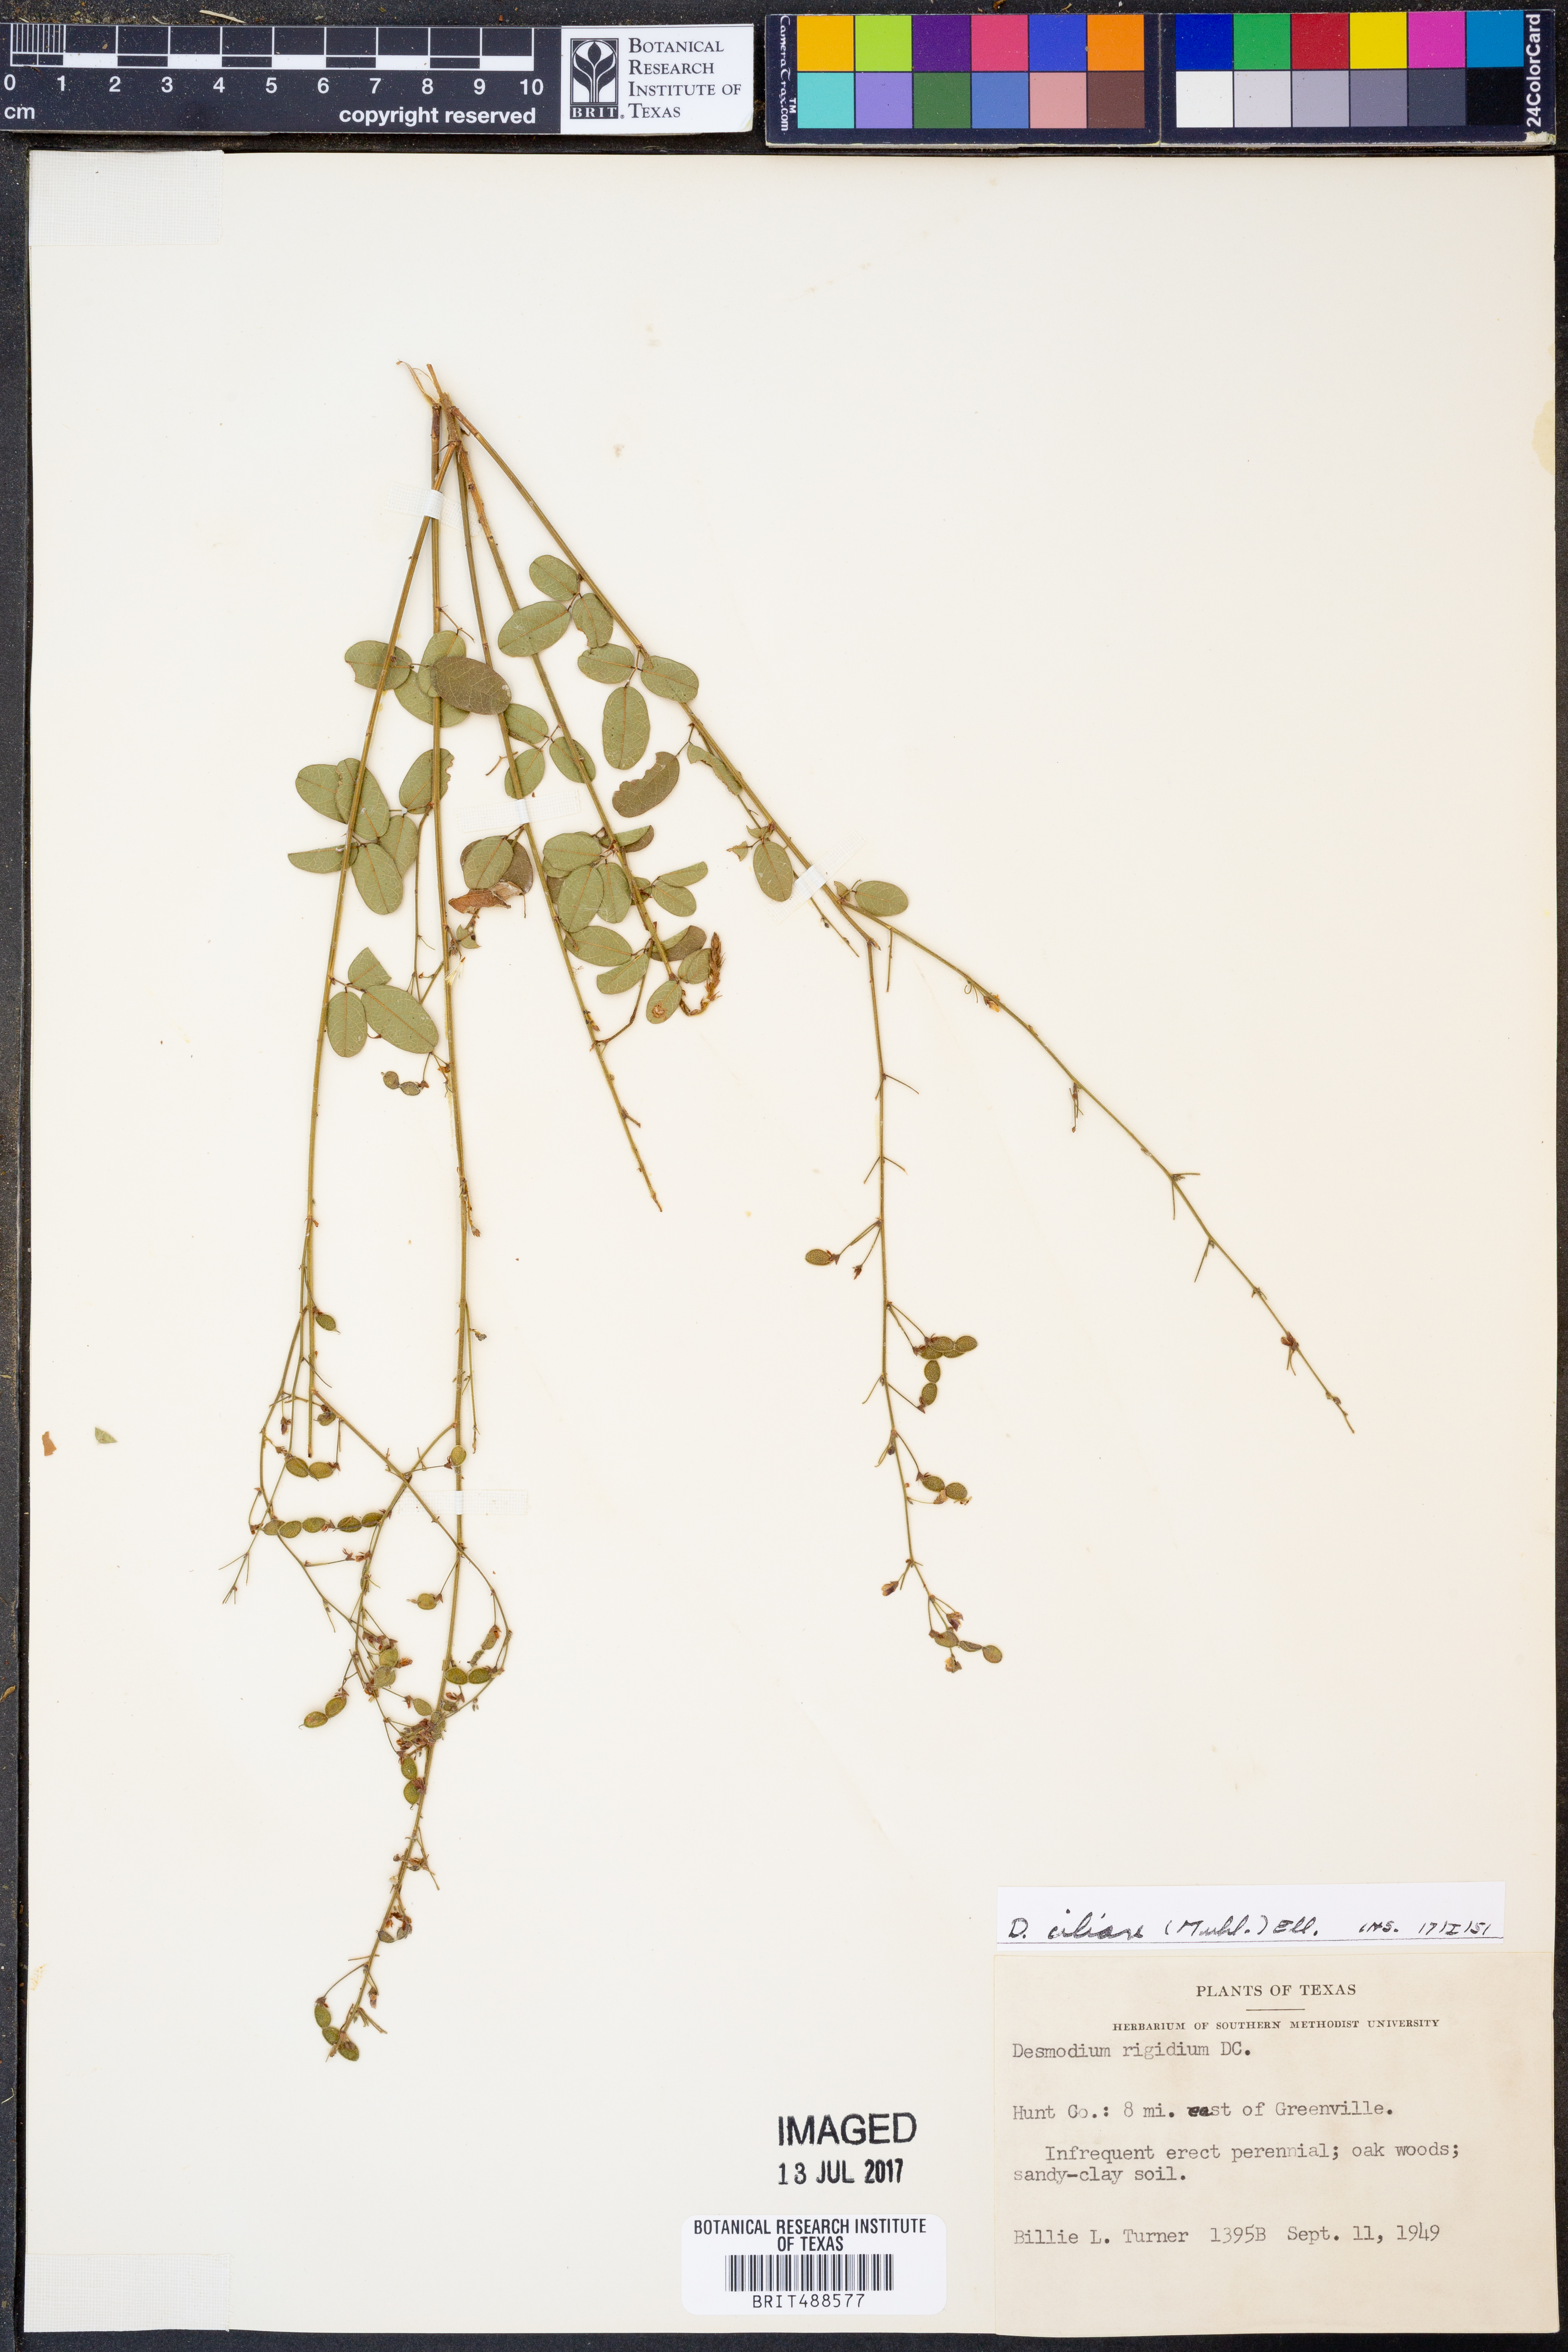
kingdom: Plantae
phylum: Tracheophyta
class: Magnoliopsida
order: Fabales
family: Fabaceae
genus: Desmodium
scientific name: Desmodium ciliare
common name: Hairy small-leaf ticktrefoil
